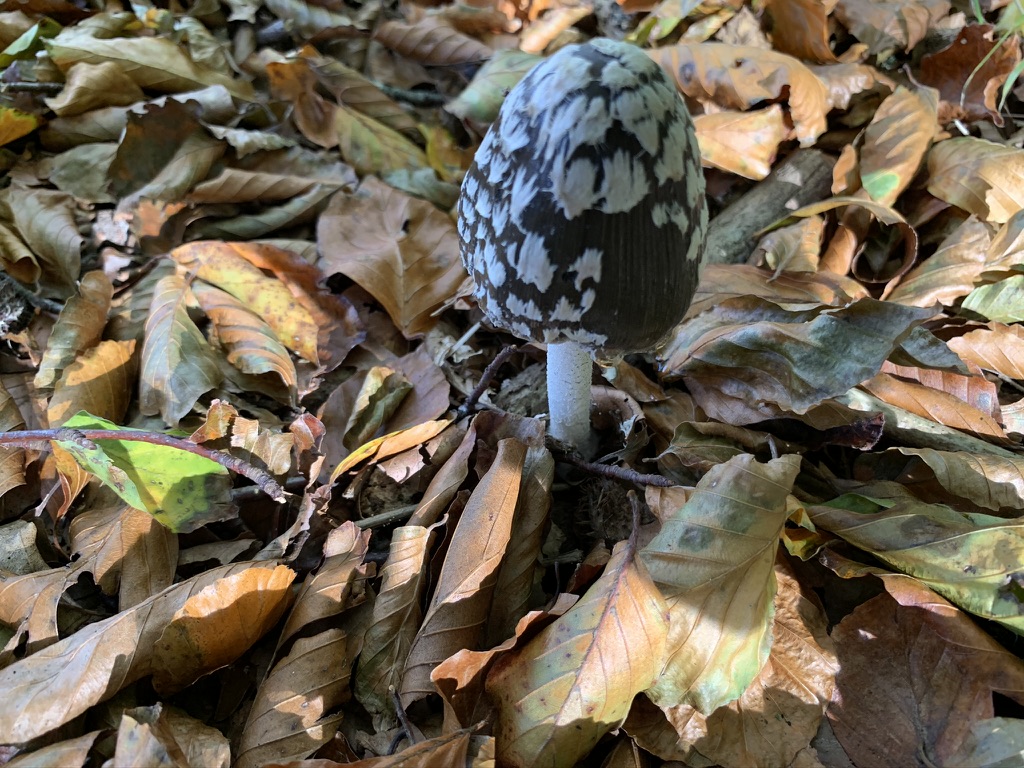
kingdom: Fungi
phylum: Basidiomycota
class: Agaricomycetes
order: Agaricales
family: Psathyrellaceae
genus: Coprinopsis
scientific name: Coprinopsis picacea
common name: skade-blækhat
